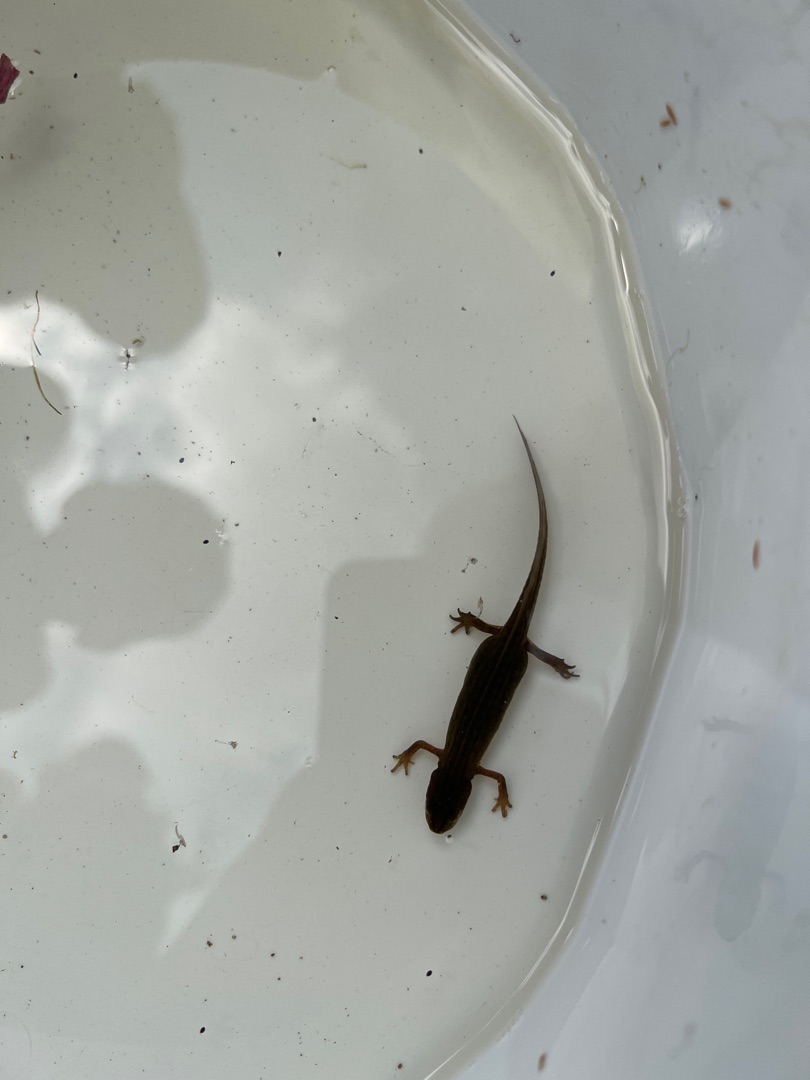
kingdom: Animalia
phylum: Chordata
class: Amphibia
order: Caudata
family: Salamandridae
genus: Lissotriton
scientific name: Lissotriton vulgaris
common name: Lille vandsalamander
